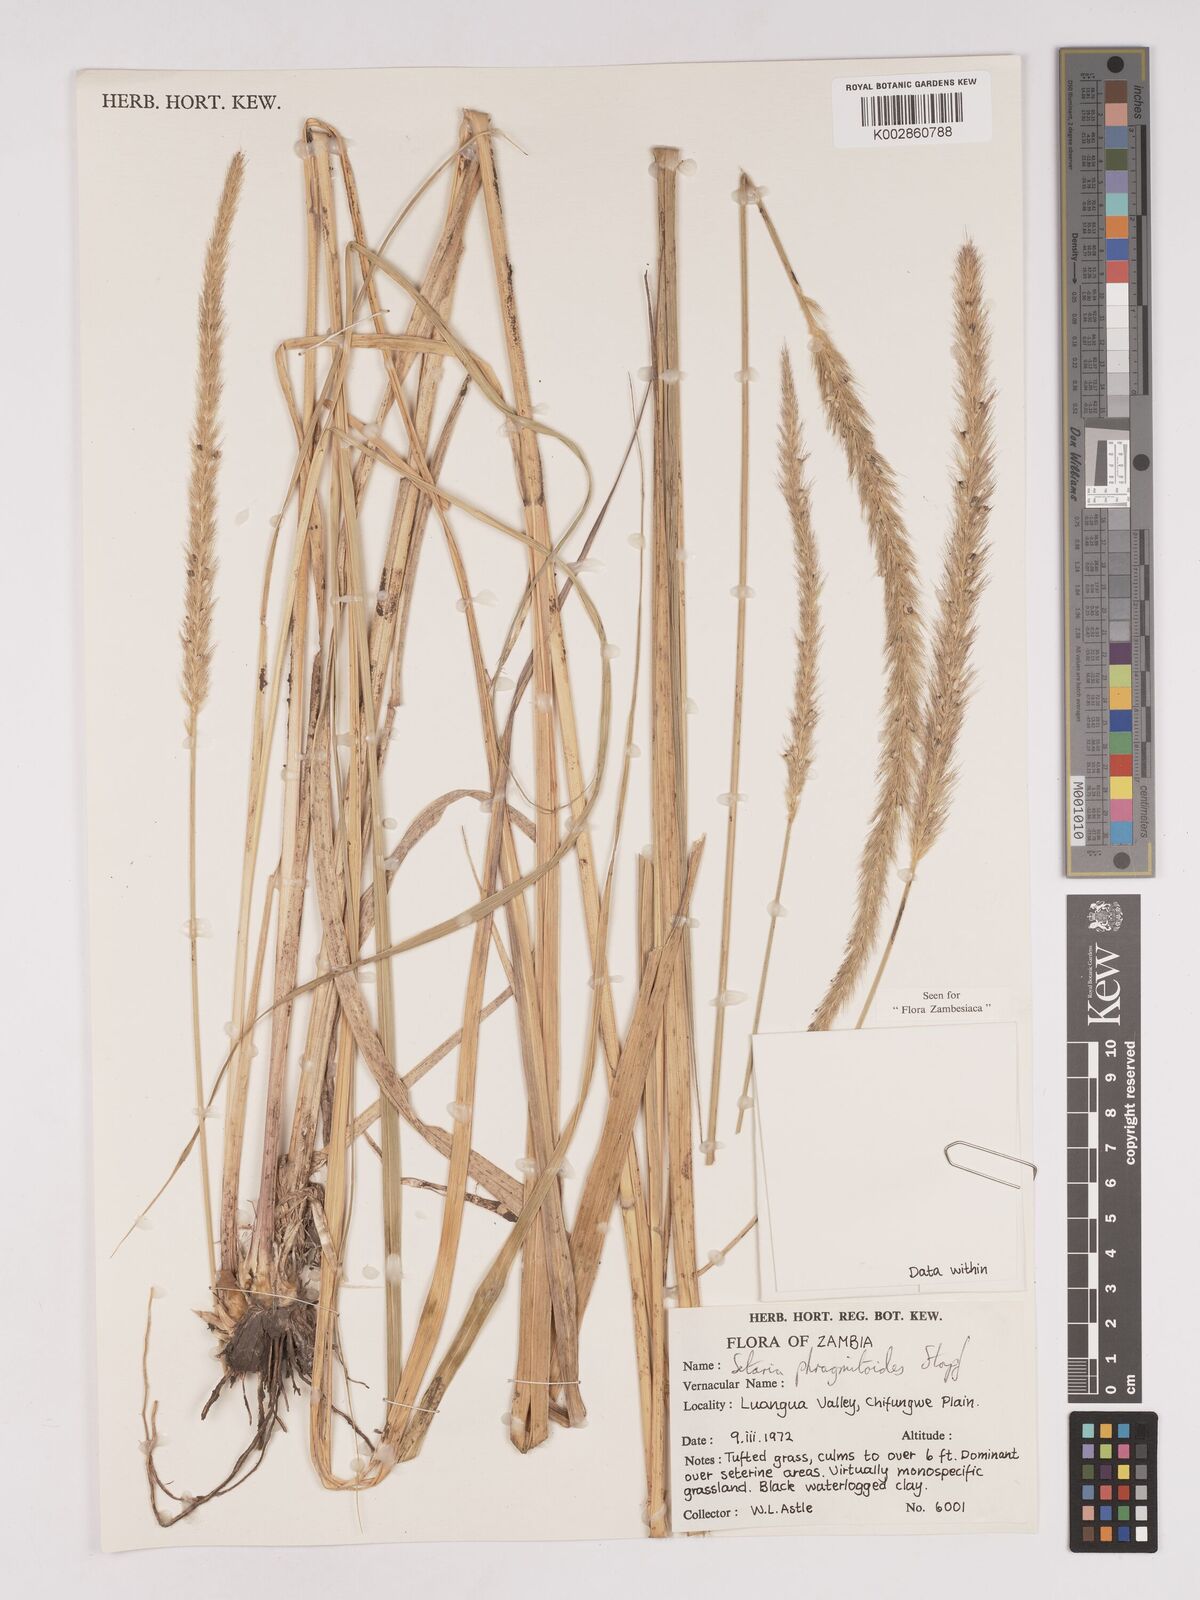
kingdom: Plantae
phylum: Tracheophyta
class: Liliopsida
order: Poales
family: Poaceae
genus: Setaria
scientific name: Setaria incrassata
